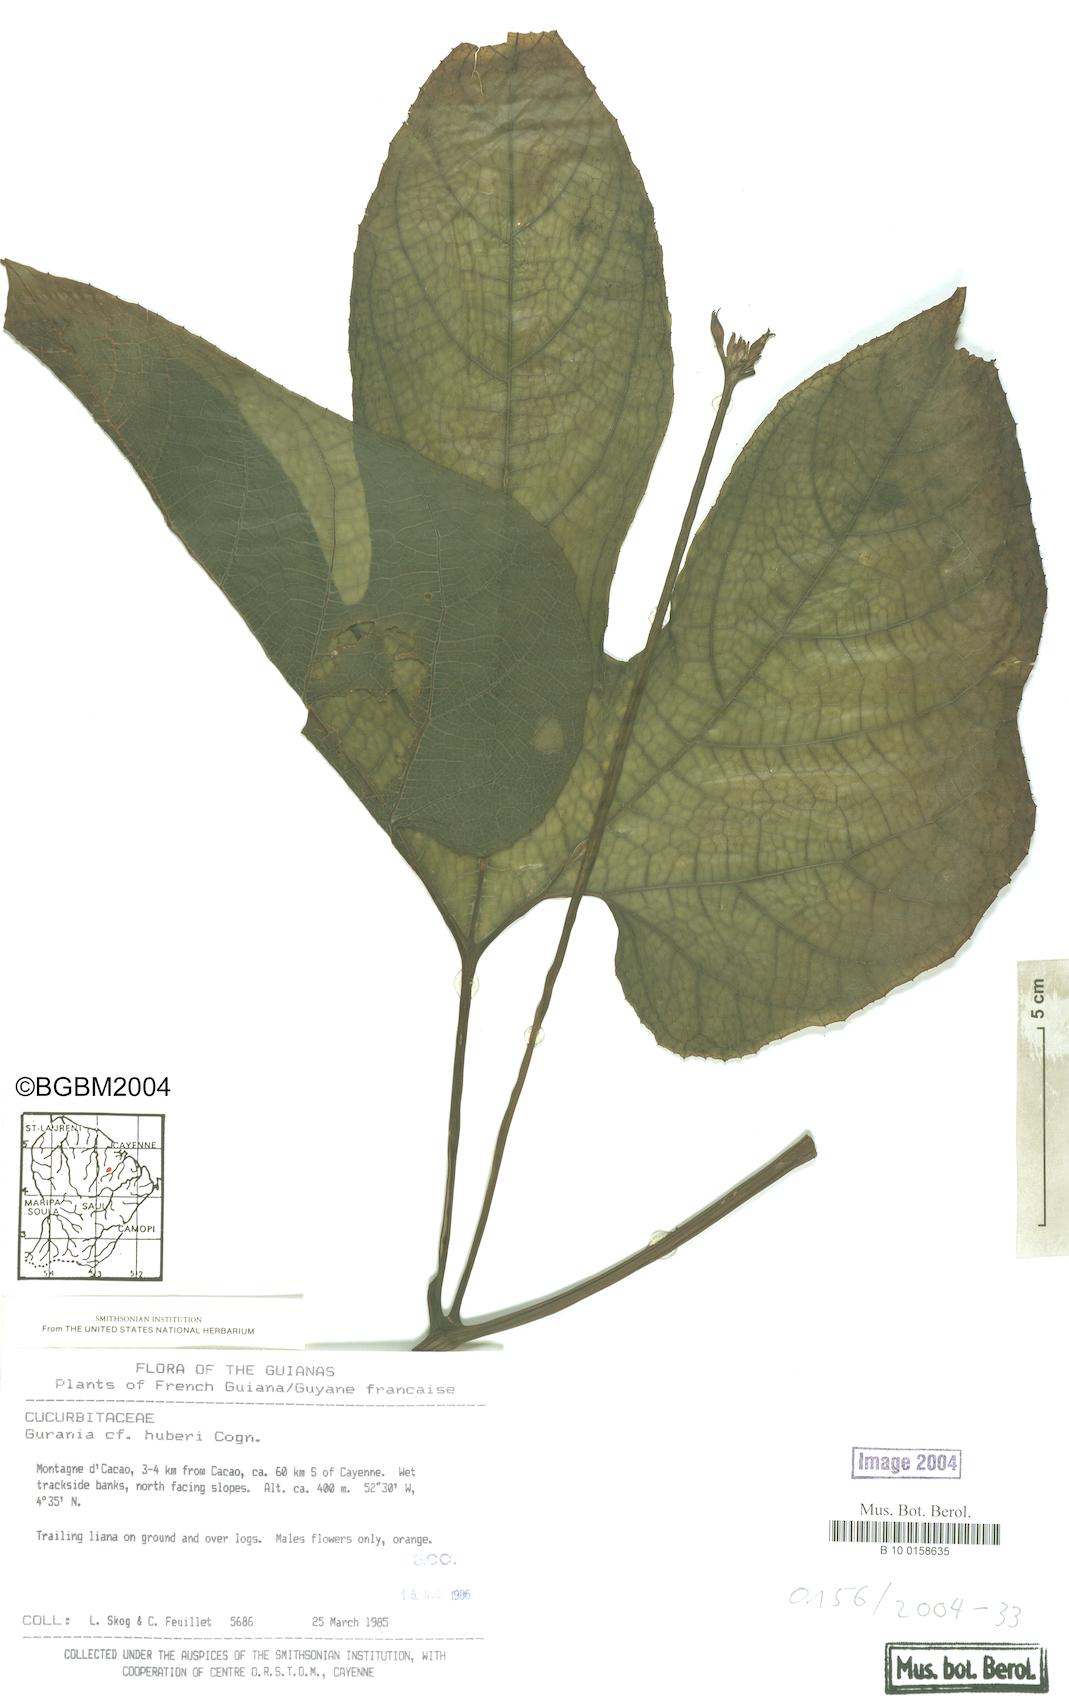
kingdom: Plantae
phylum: Tracheophyta
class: Magnoliopsida
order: Cucurbitales
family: Cucurbitaceae
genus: Gurania
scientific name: Gurania lobata
